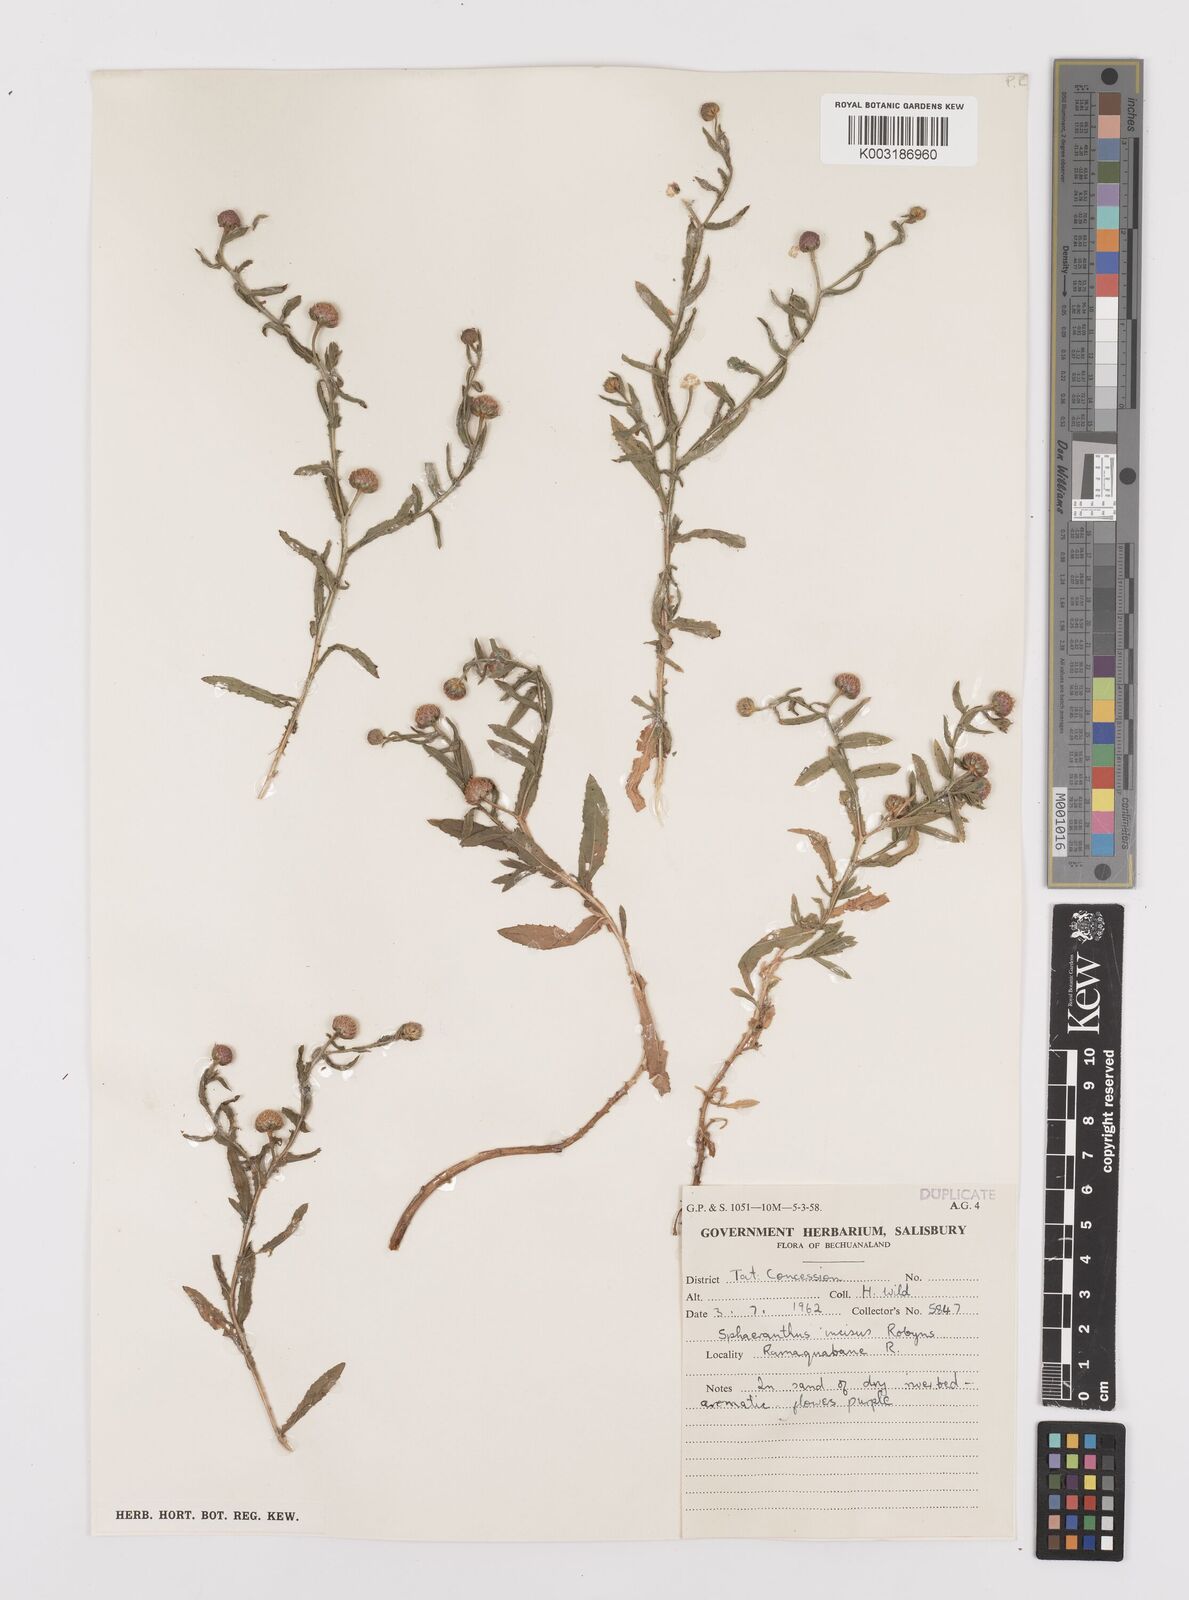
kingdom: Plantae
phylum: Tracheophyta
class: Magnoliopsida
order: Asterales
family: Asteraceae
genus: Sphaeranthus
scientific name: Sphaeranthus peduncularis
